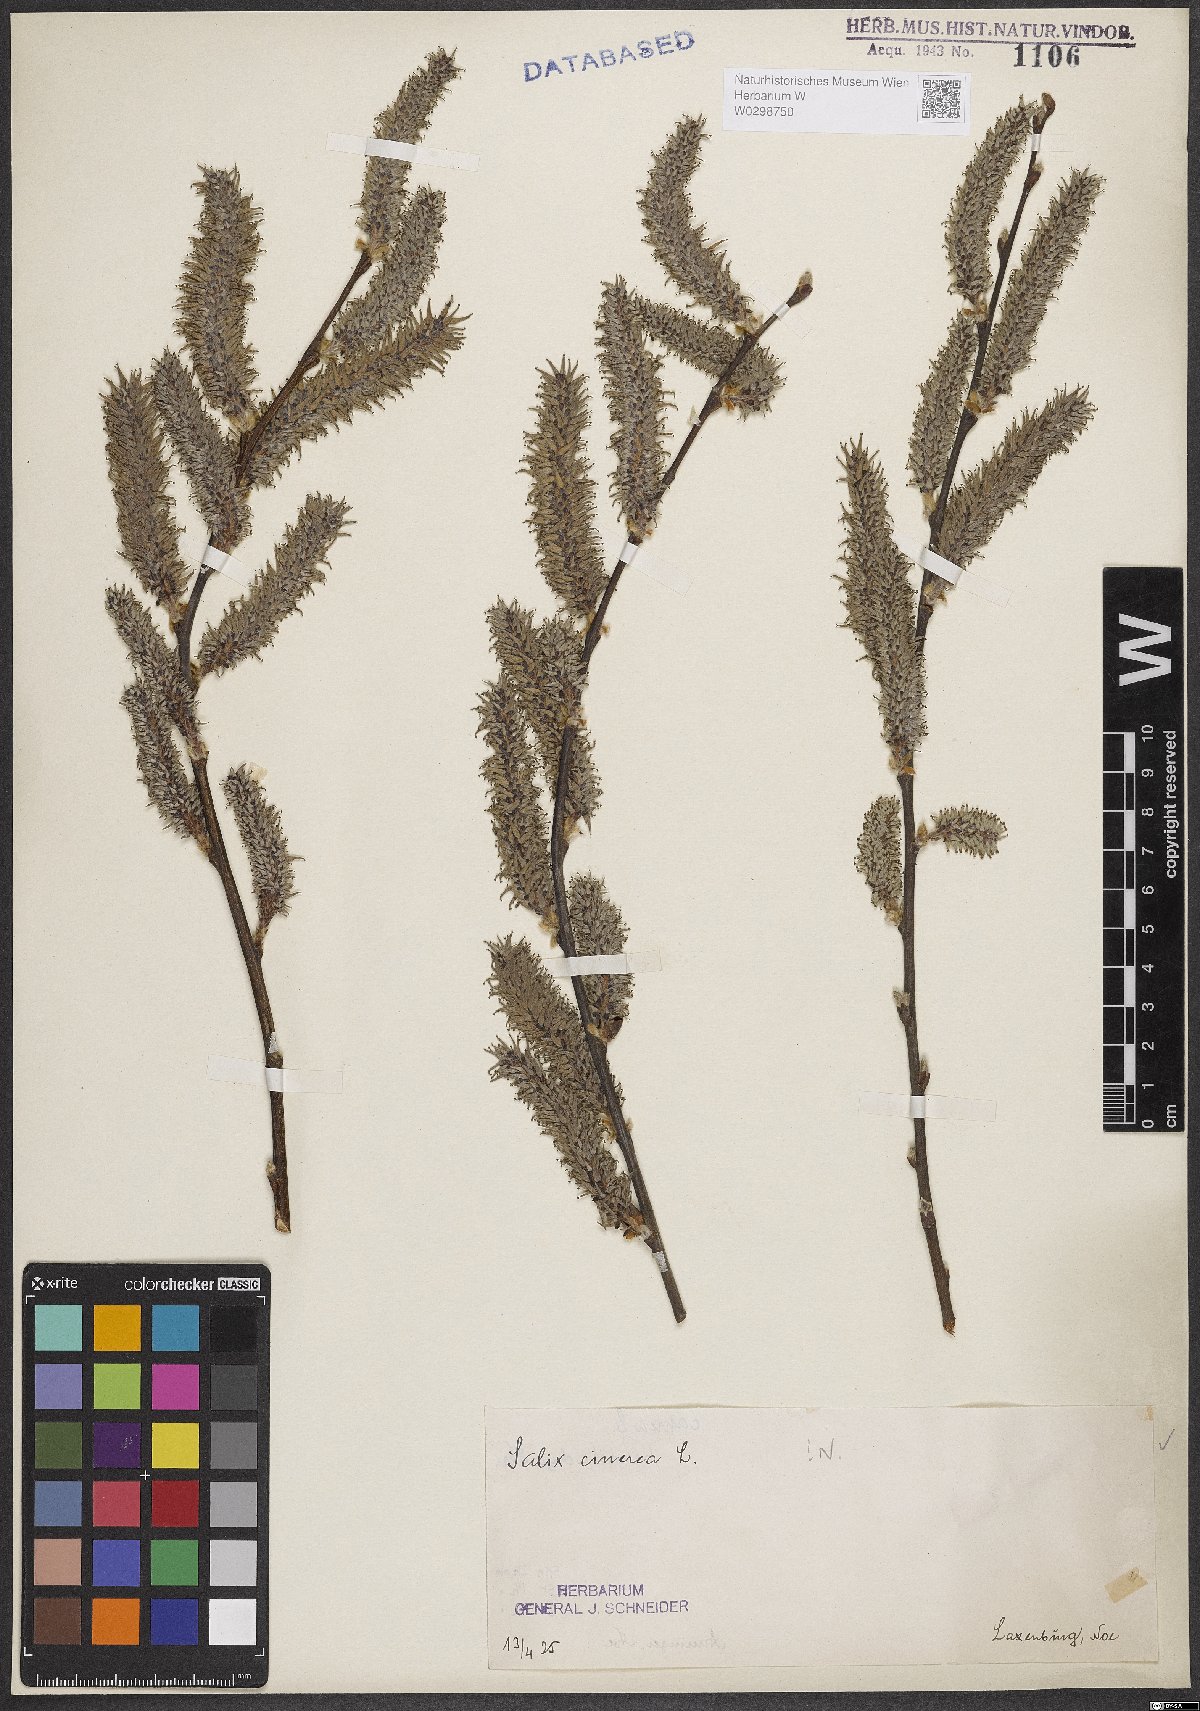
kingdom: Plantae
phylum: Tracheophyta
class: Magnoliopsida
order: Malpighiales
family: Salicaceae
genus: Salix
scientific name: Salix cinerea
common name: Common sallow
